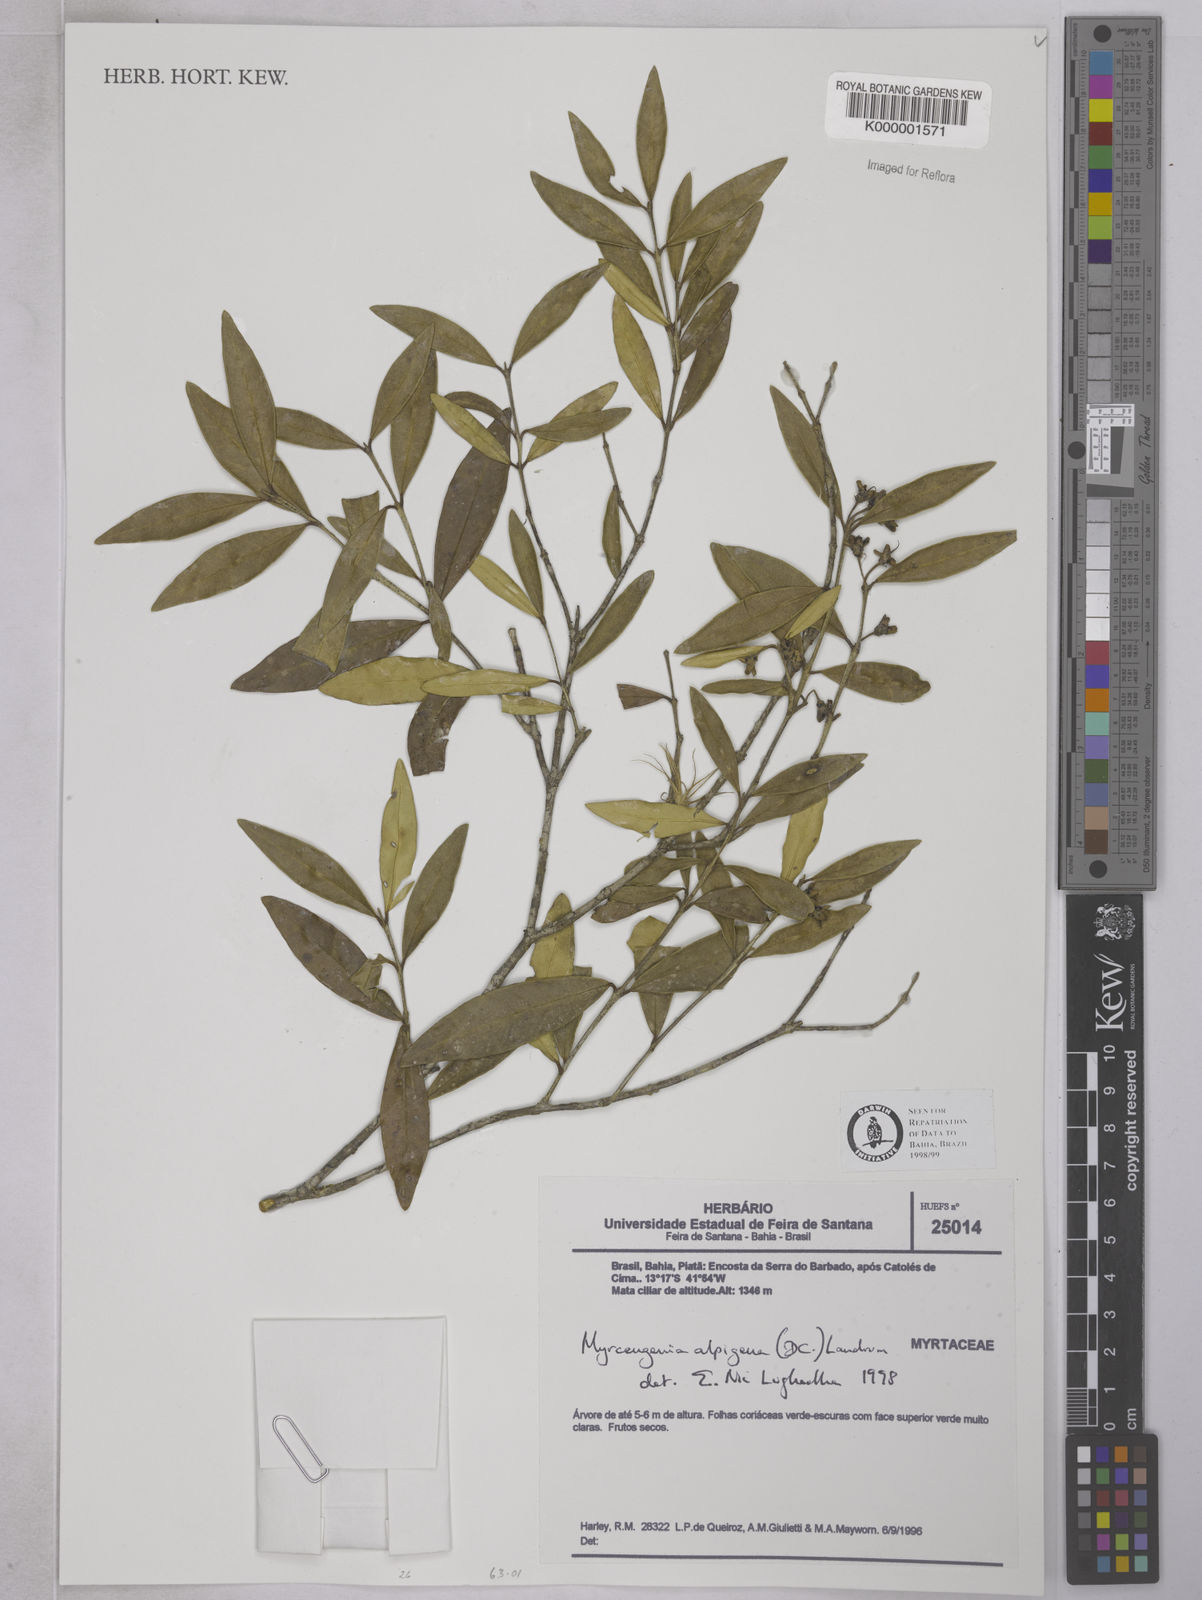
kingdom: Plantae
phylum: Tracheophyta
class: Magnoliopsida
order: Myrtales
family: Myrtaceae
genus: Myrceugenia
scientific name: Myrceugenia alpigena
